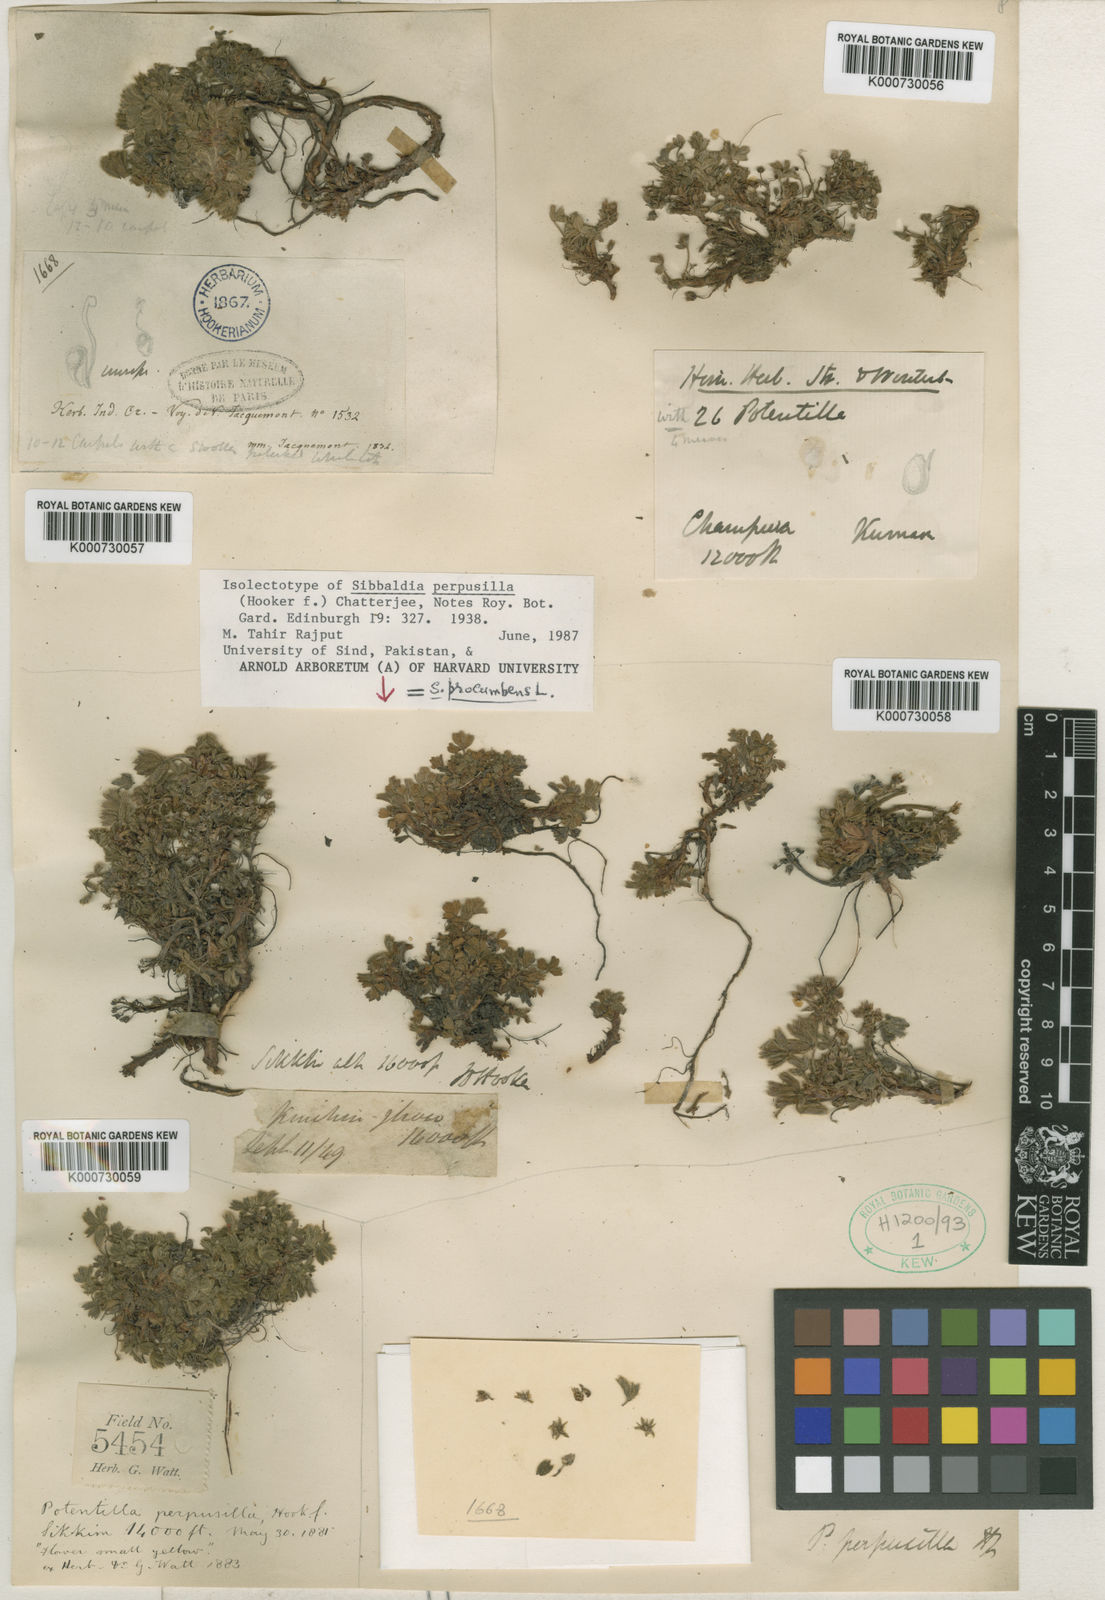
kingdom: Plantae
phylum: Tracheophyta
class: Magnoliopsida
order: Rosales
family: Rosaceae
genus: Sibbaldia
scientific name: Sibbaldia perpusilla
